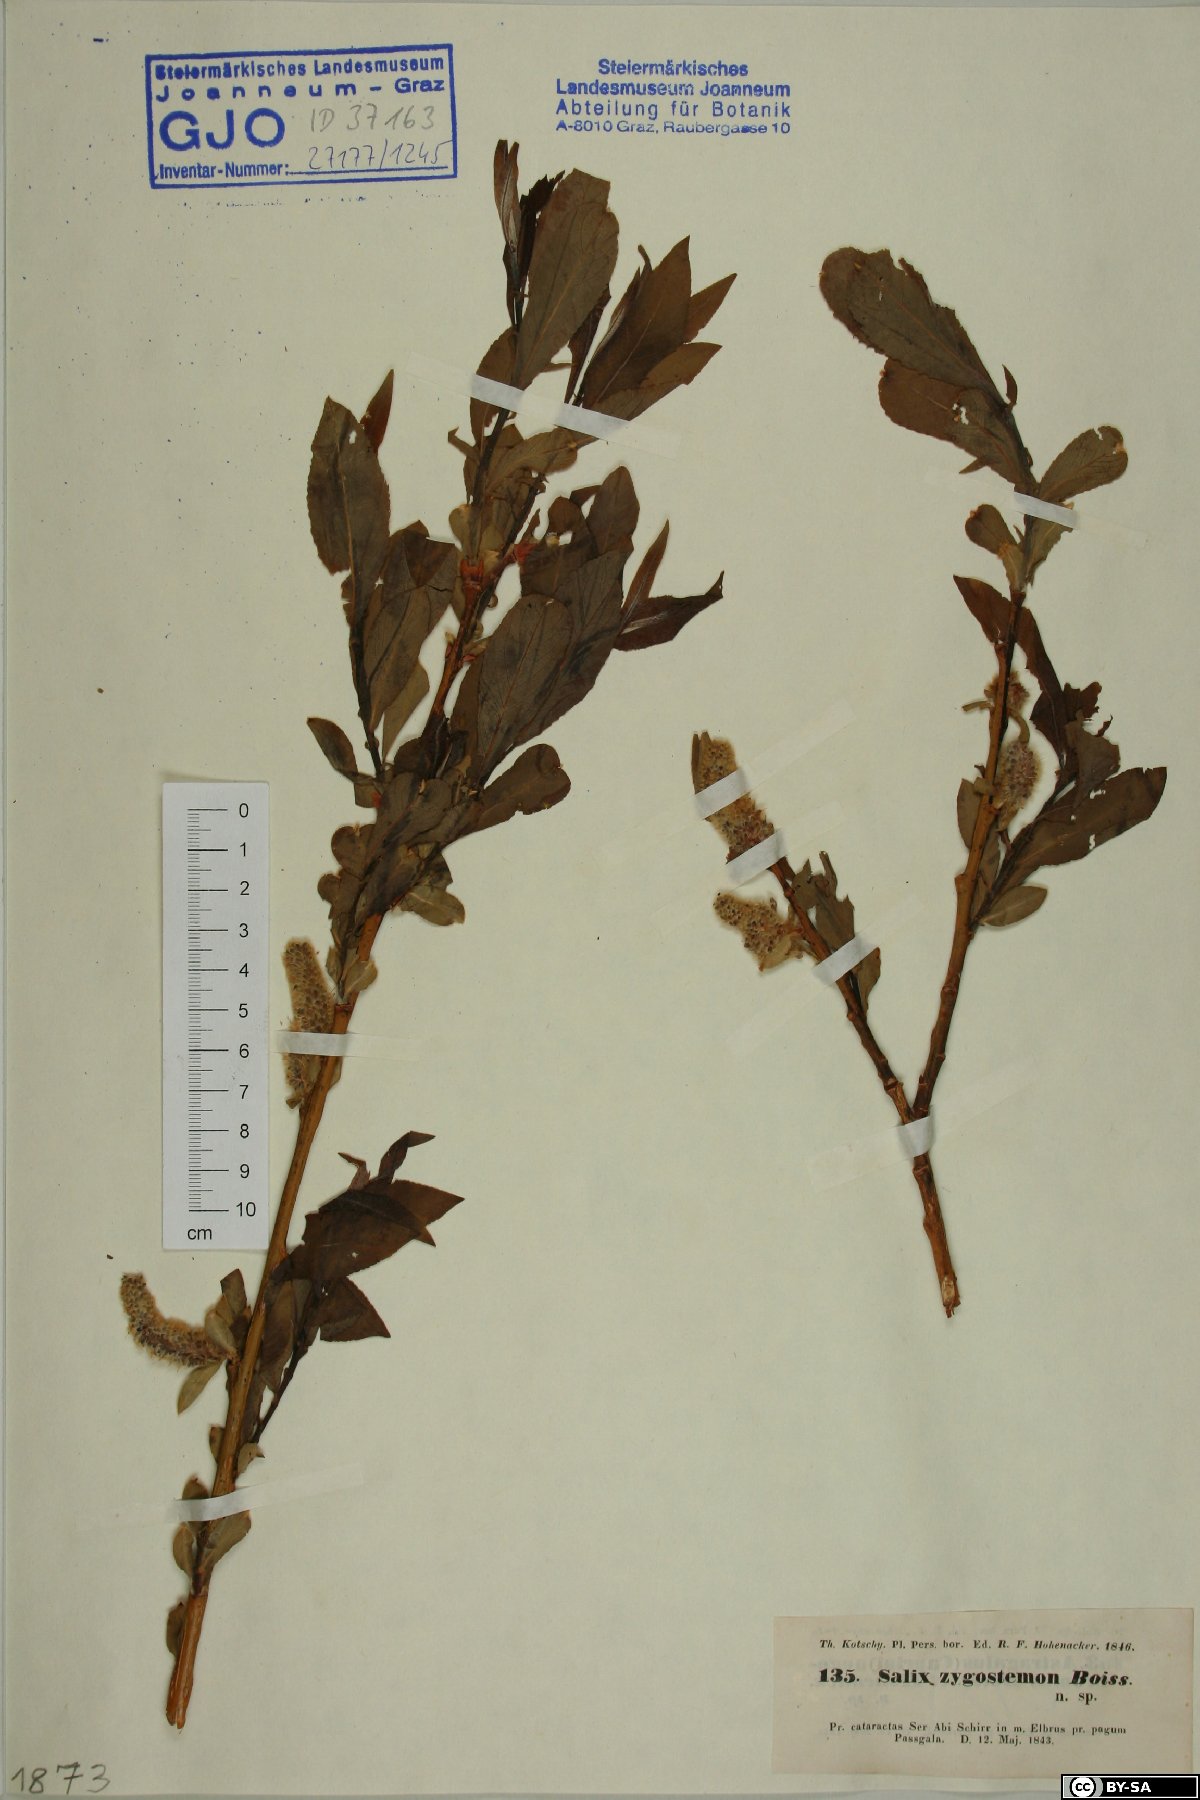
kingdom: Plantae
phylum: Tracheophyta
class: Magnoliopsida
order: Malpighiales
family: Salicaceae
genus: Salix
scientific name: Salix sericocarpa
